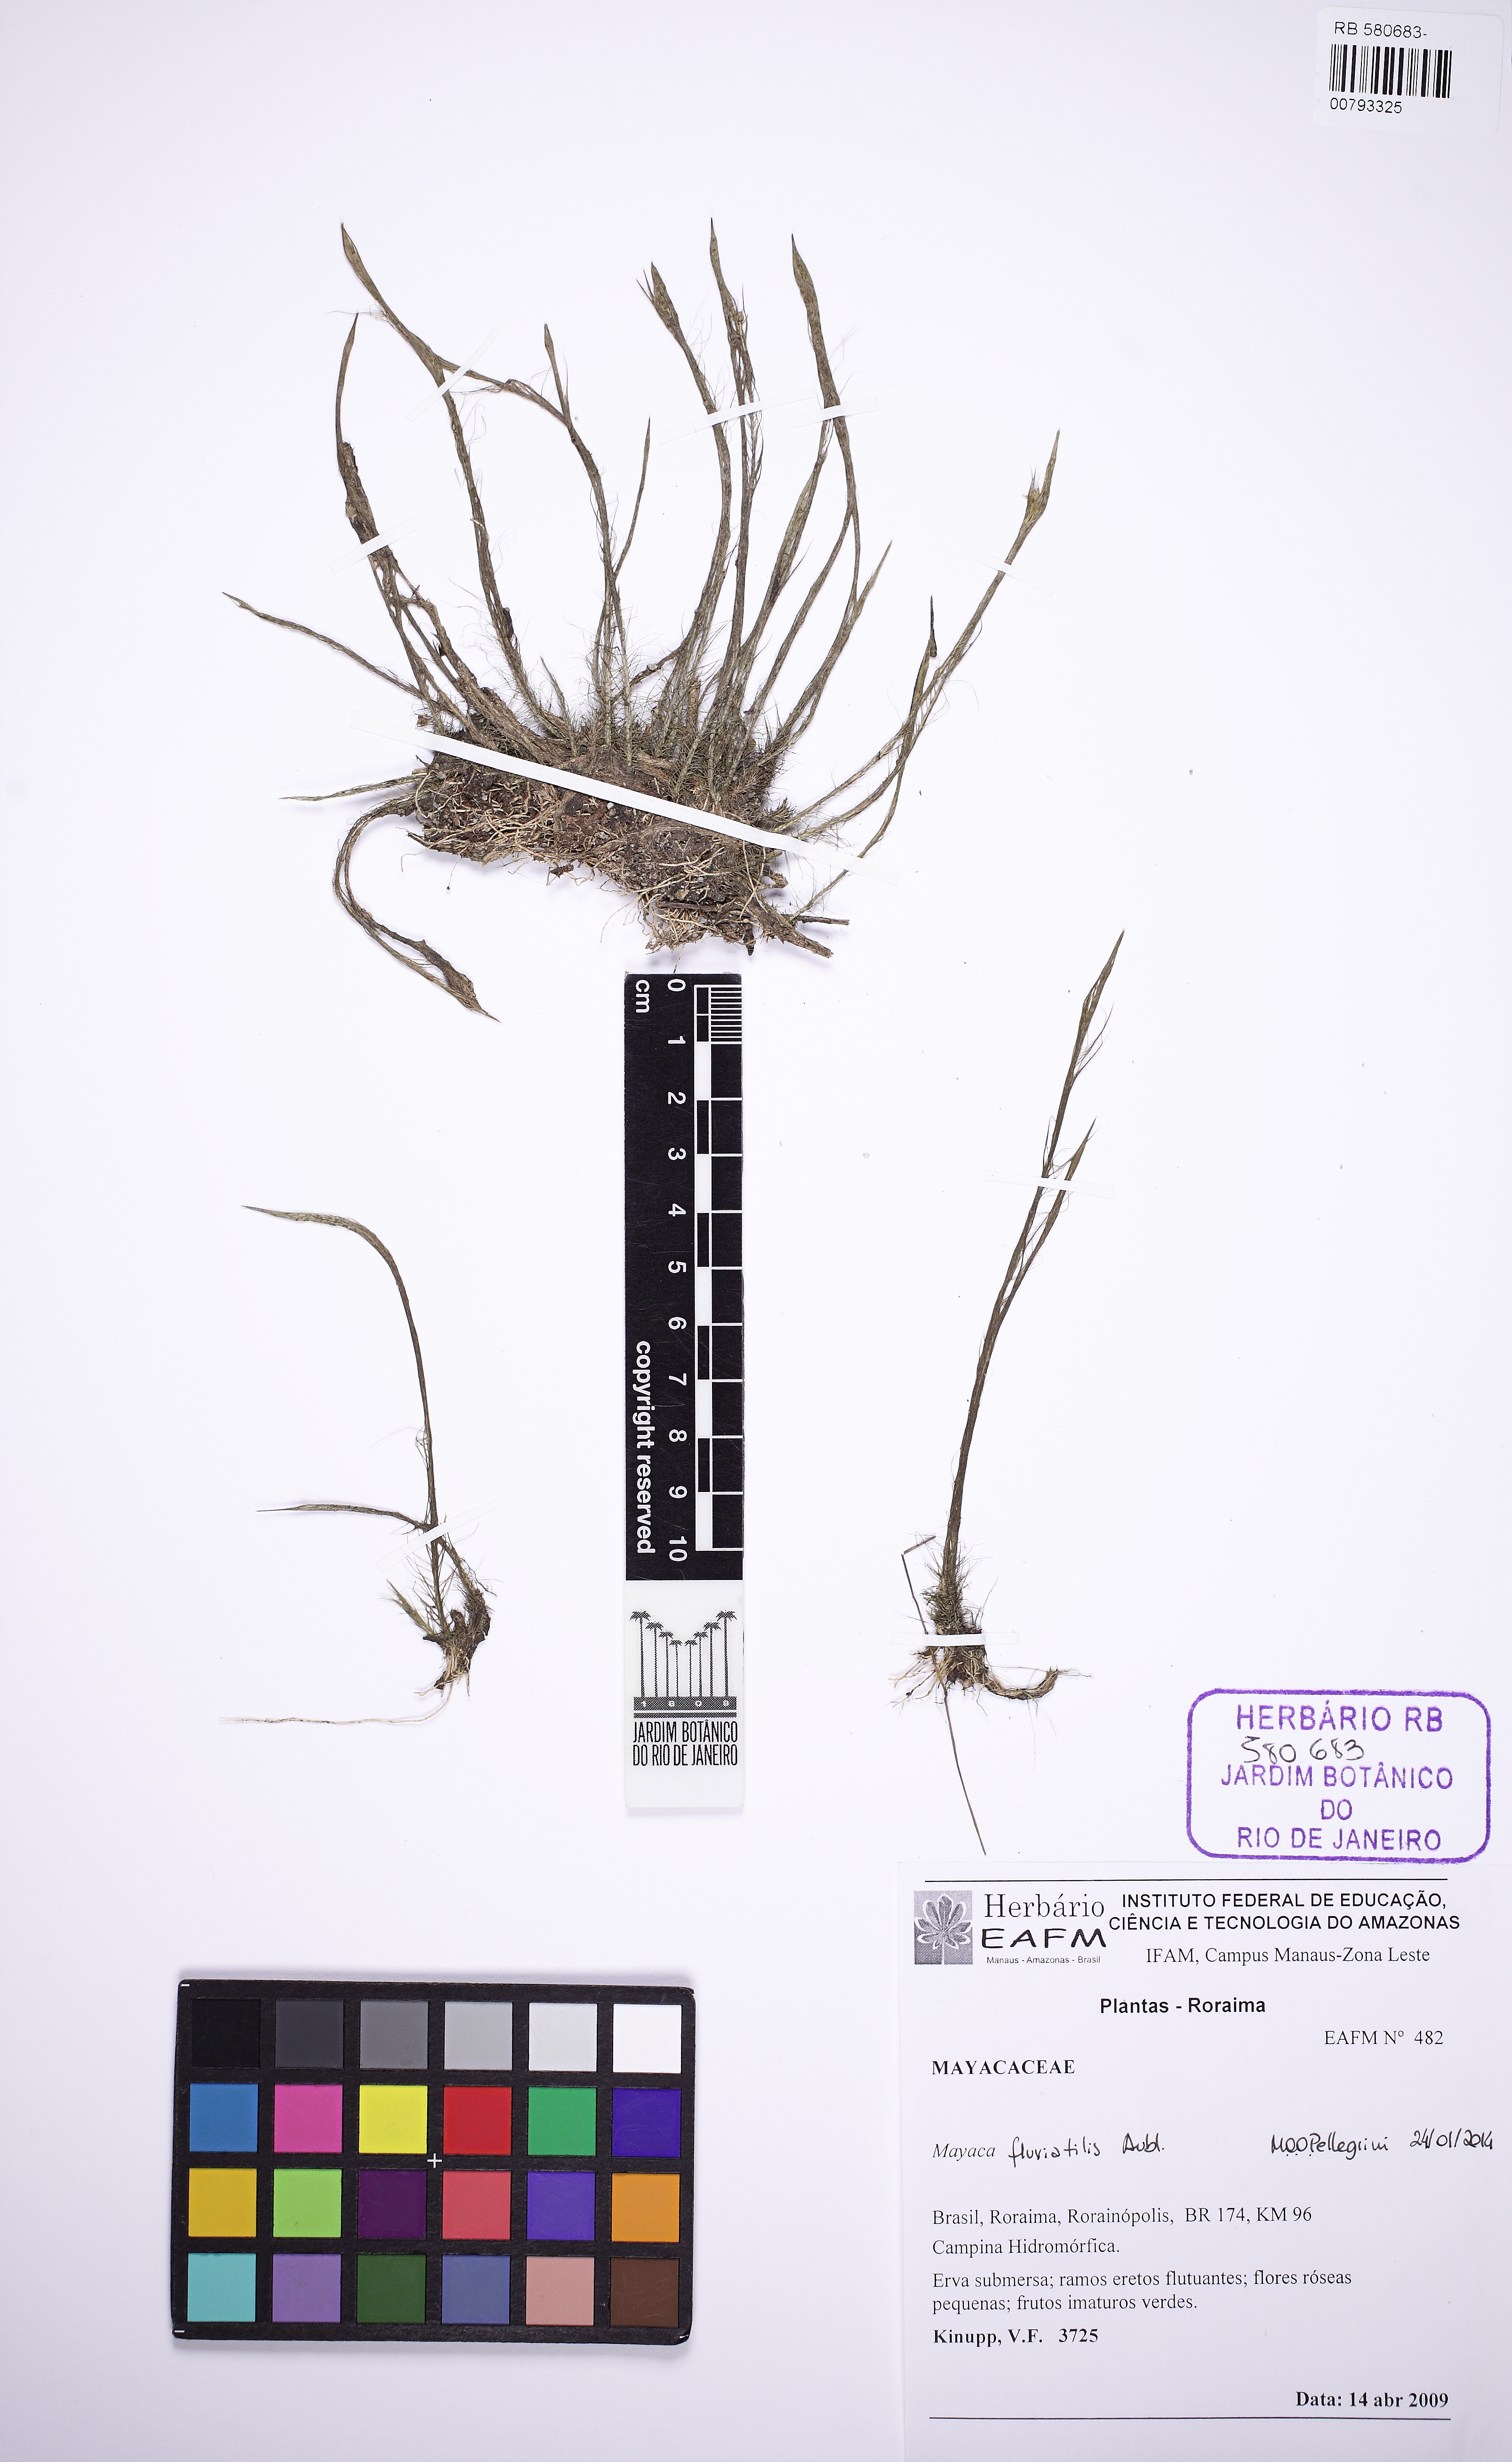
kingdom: Plantae
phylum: Tracheophyta
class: Liliopsida
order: Poales
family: Mayacaceae
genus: Mayaca
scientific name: Mayaca fluviatilis
